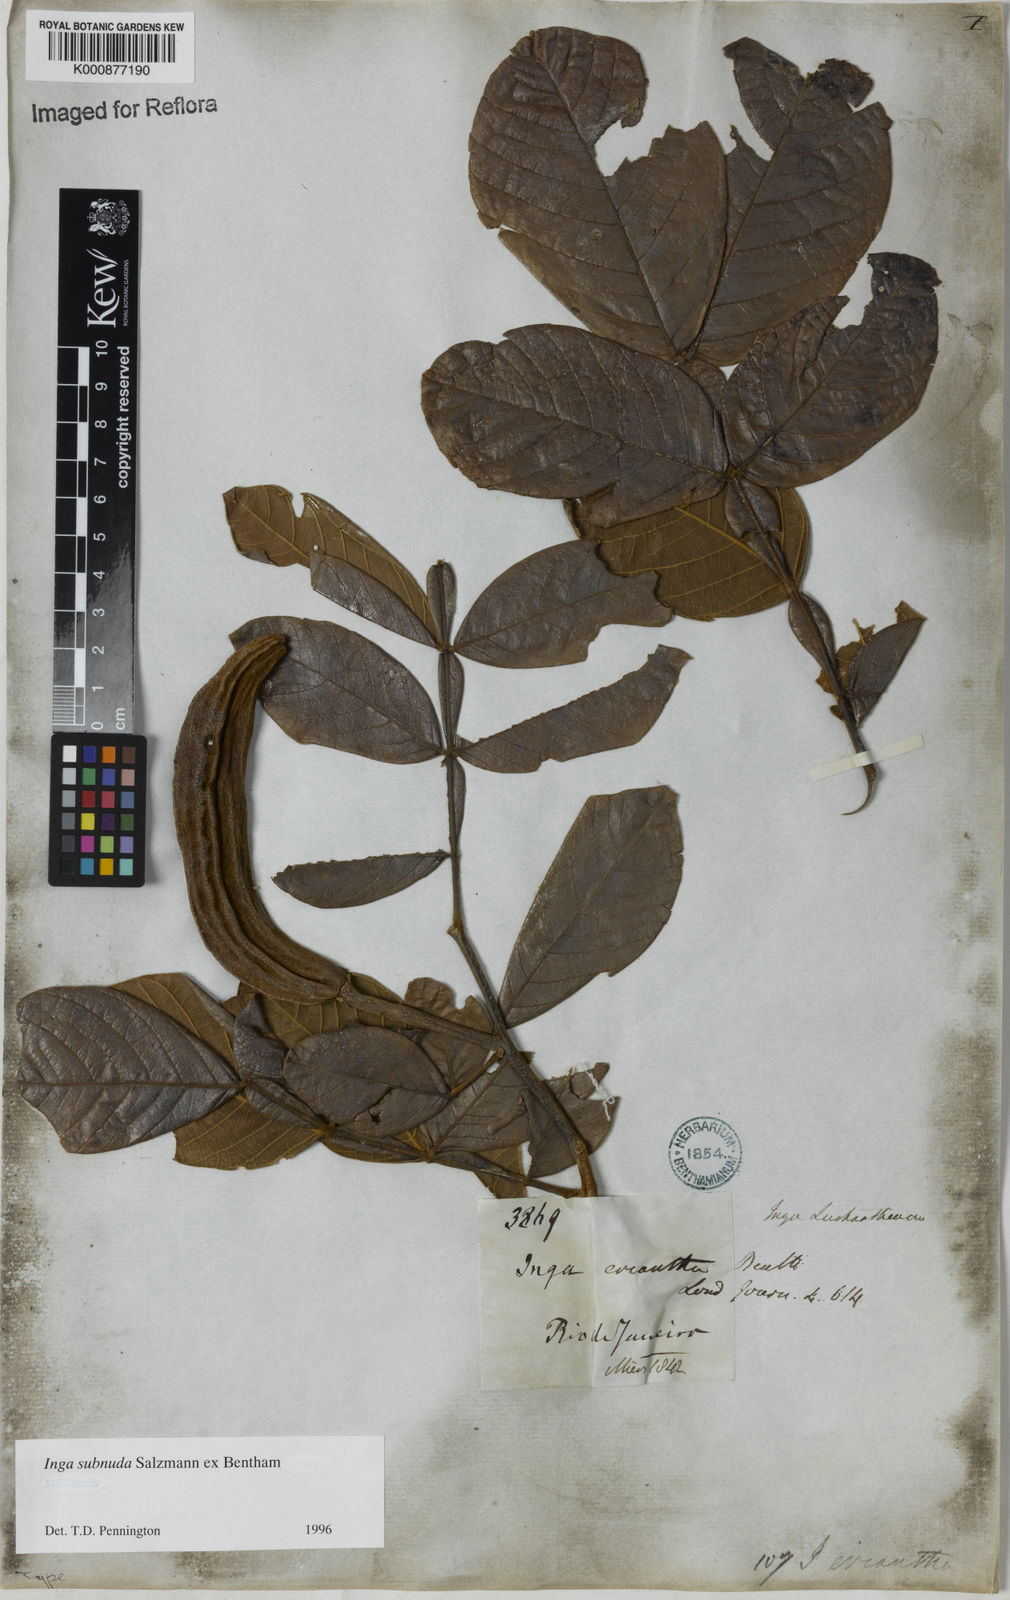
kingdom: Plantae
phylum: Tracheophyta
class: Magnoliopsida
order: Fabales
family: Fabaceae
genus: Inga
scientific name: Inga subnuda
